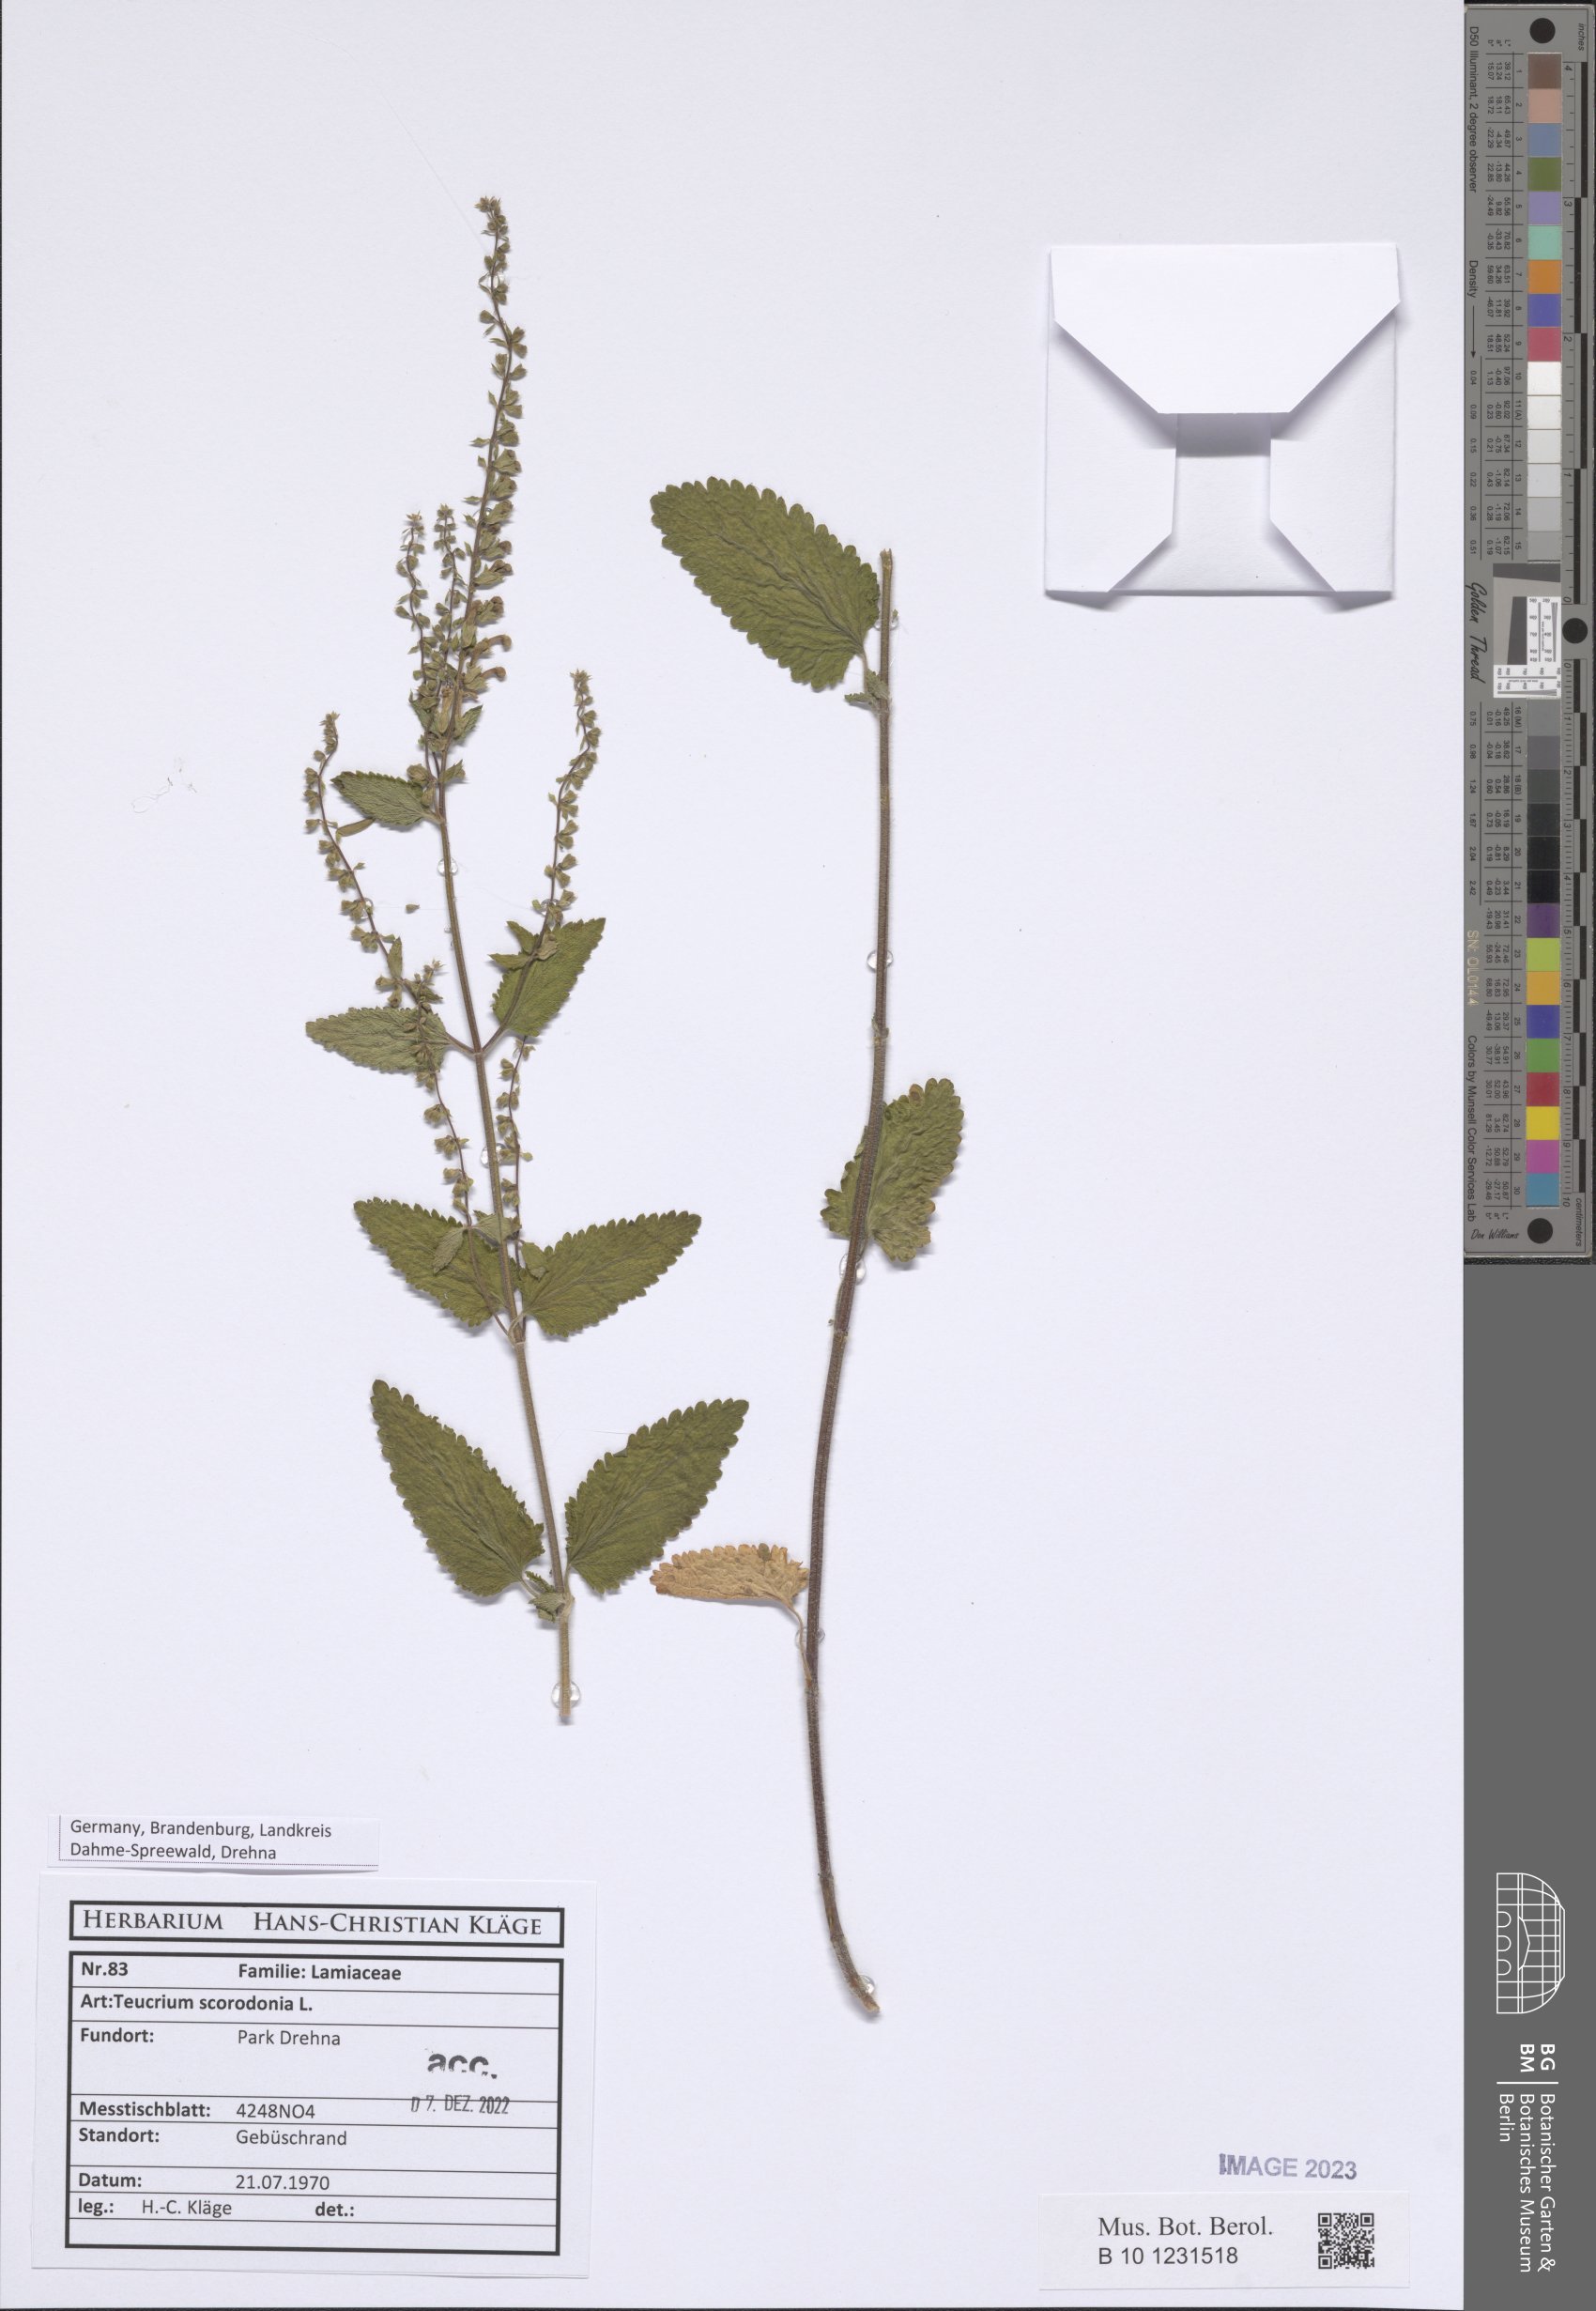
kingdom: Plantae
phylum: Tracheophyta
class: Magnoliopsida
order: Lamiales
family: Lamiaceae
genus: Teucrium
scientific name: Teucrium scorodonia
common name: Woodland germander
